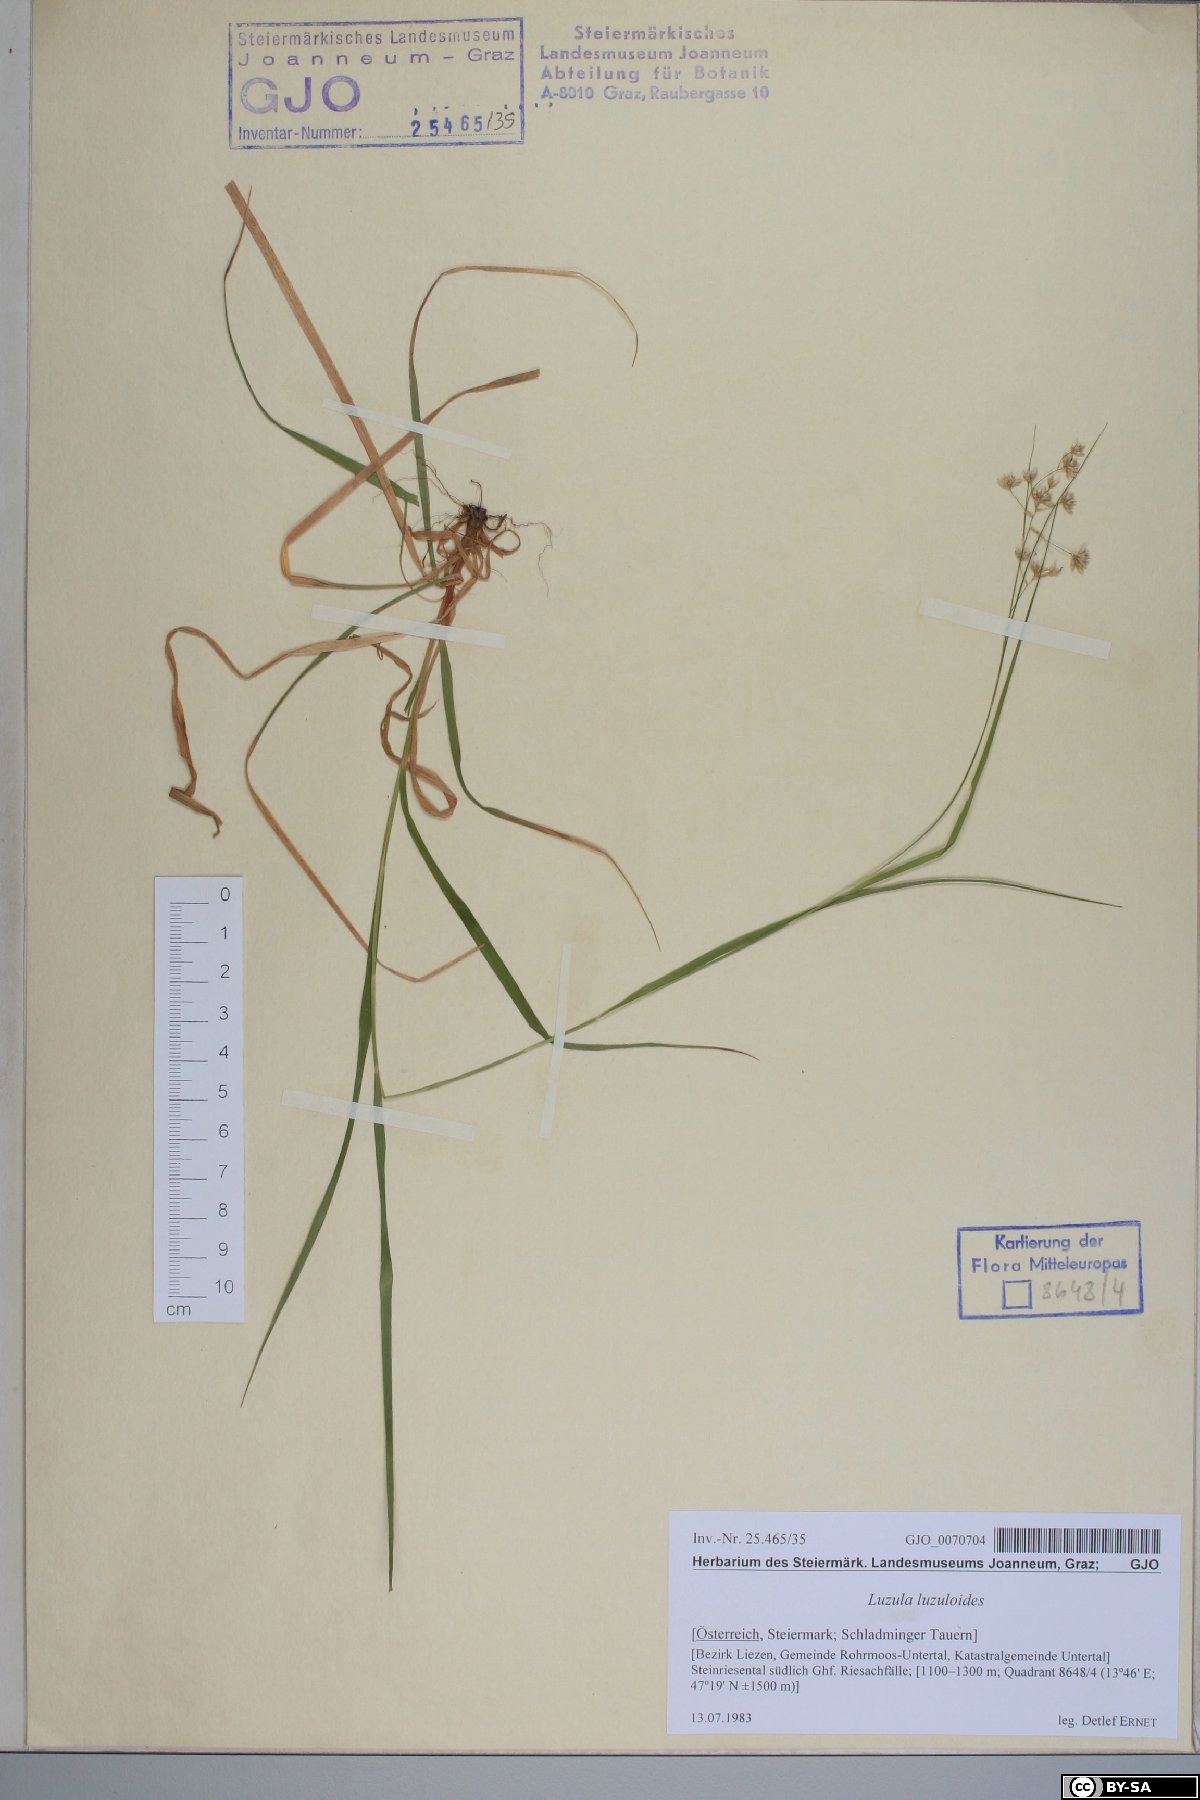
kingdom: Plantae
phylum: Tracheophyta
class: Liliopsida
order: Poales
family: Juncaceae
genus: Luzula
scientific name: Luzula luzuloides
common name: White wood-rush
